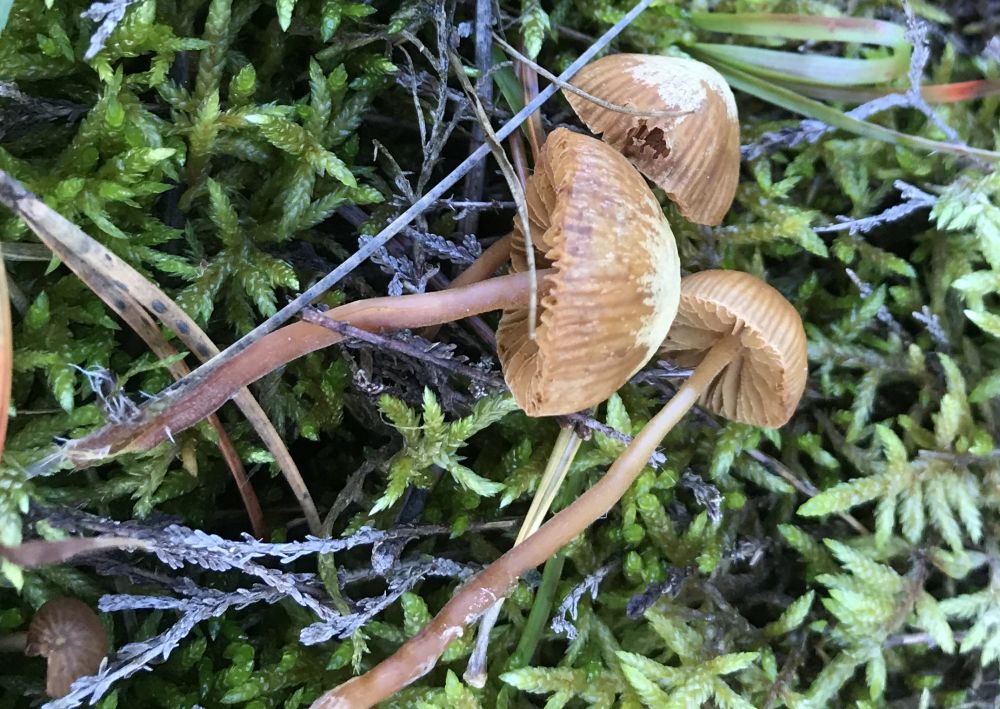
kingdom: Fungi
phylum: Basidiomycota
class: Agaricomycetes
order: Agaricales
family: Hymenogastraceae
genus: Galerina
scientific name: Galerina
